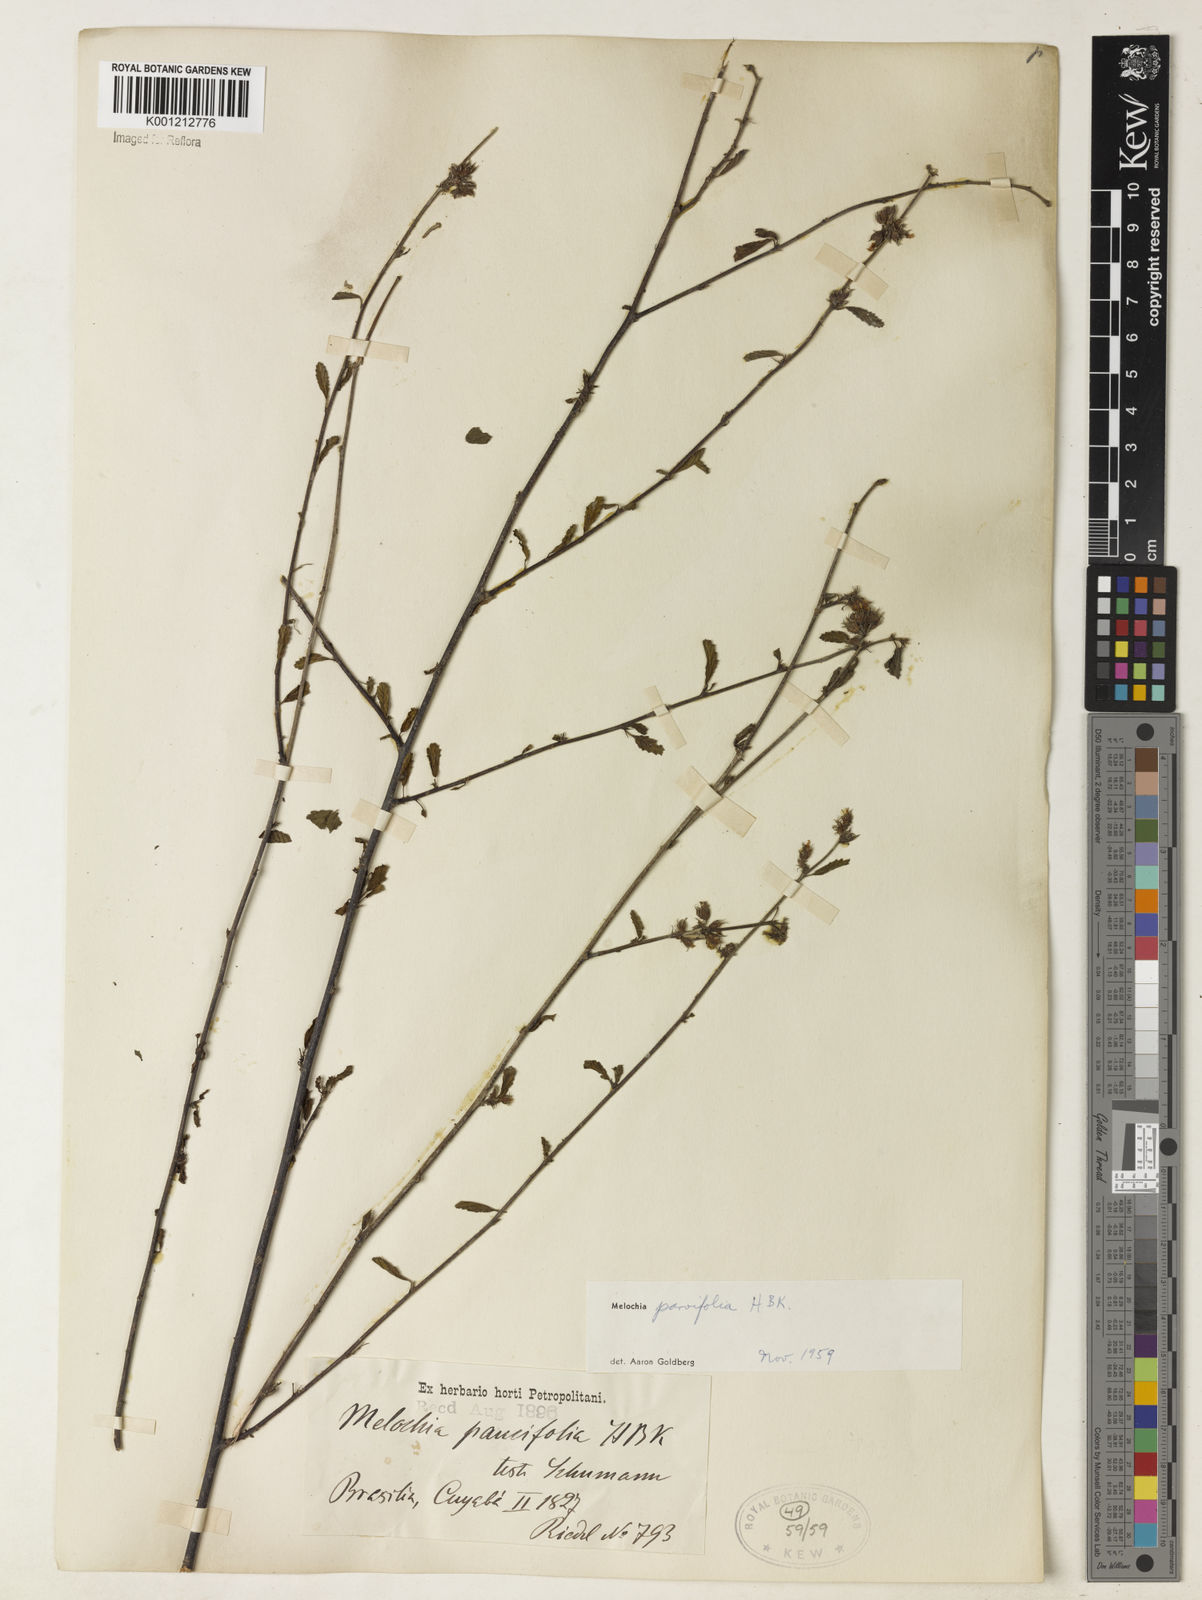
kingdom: Plantae
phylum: Tracheophyta
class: Magnoliopsida
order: Malvales
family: Malvaceae
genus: Melochia
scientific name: Melochia
